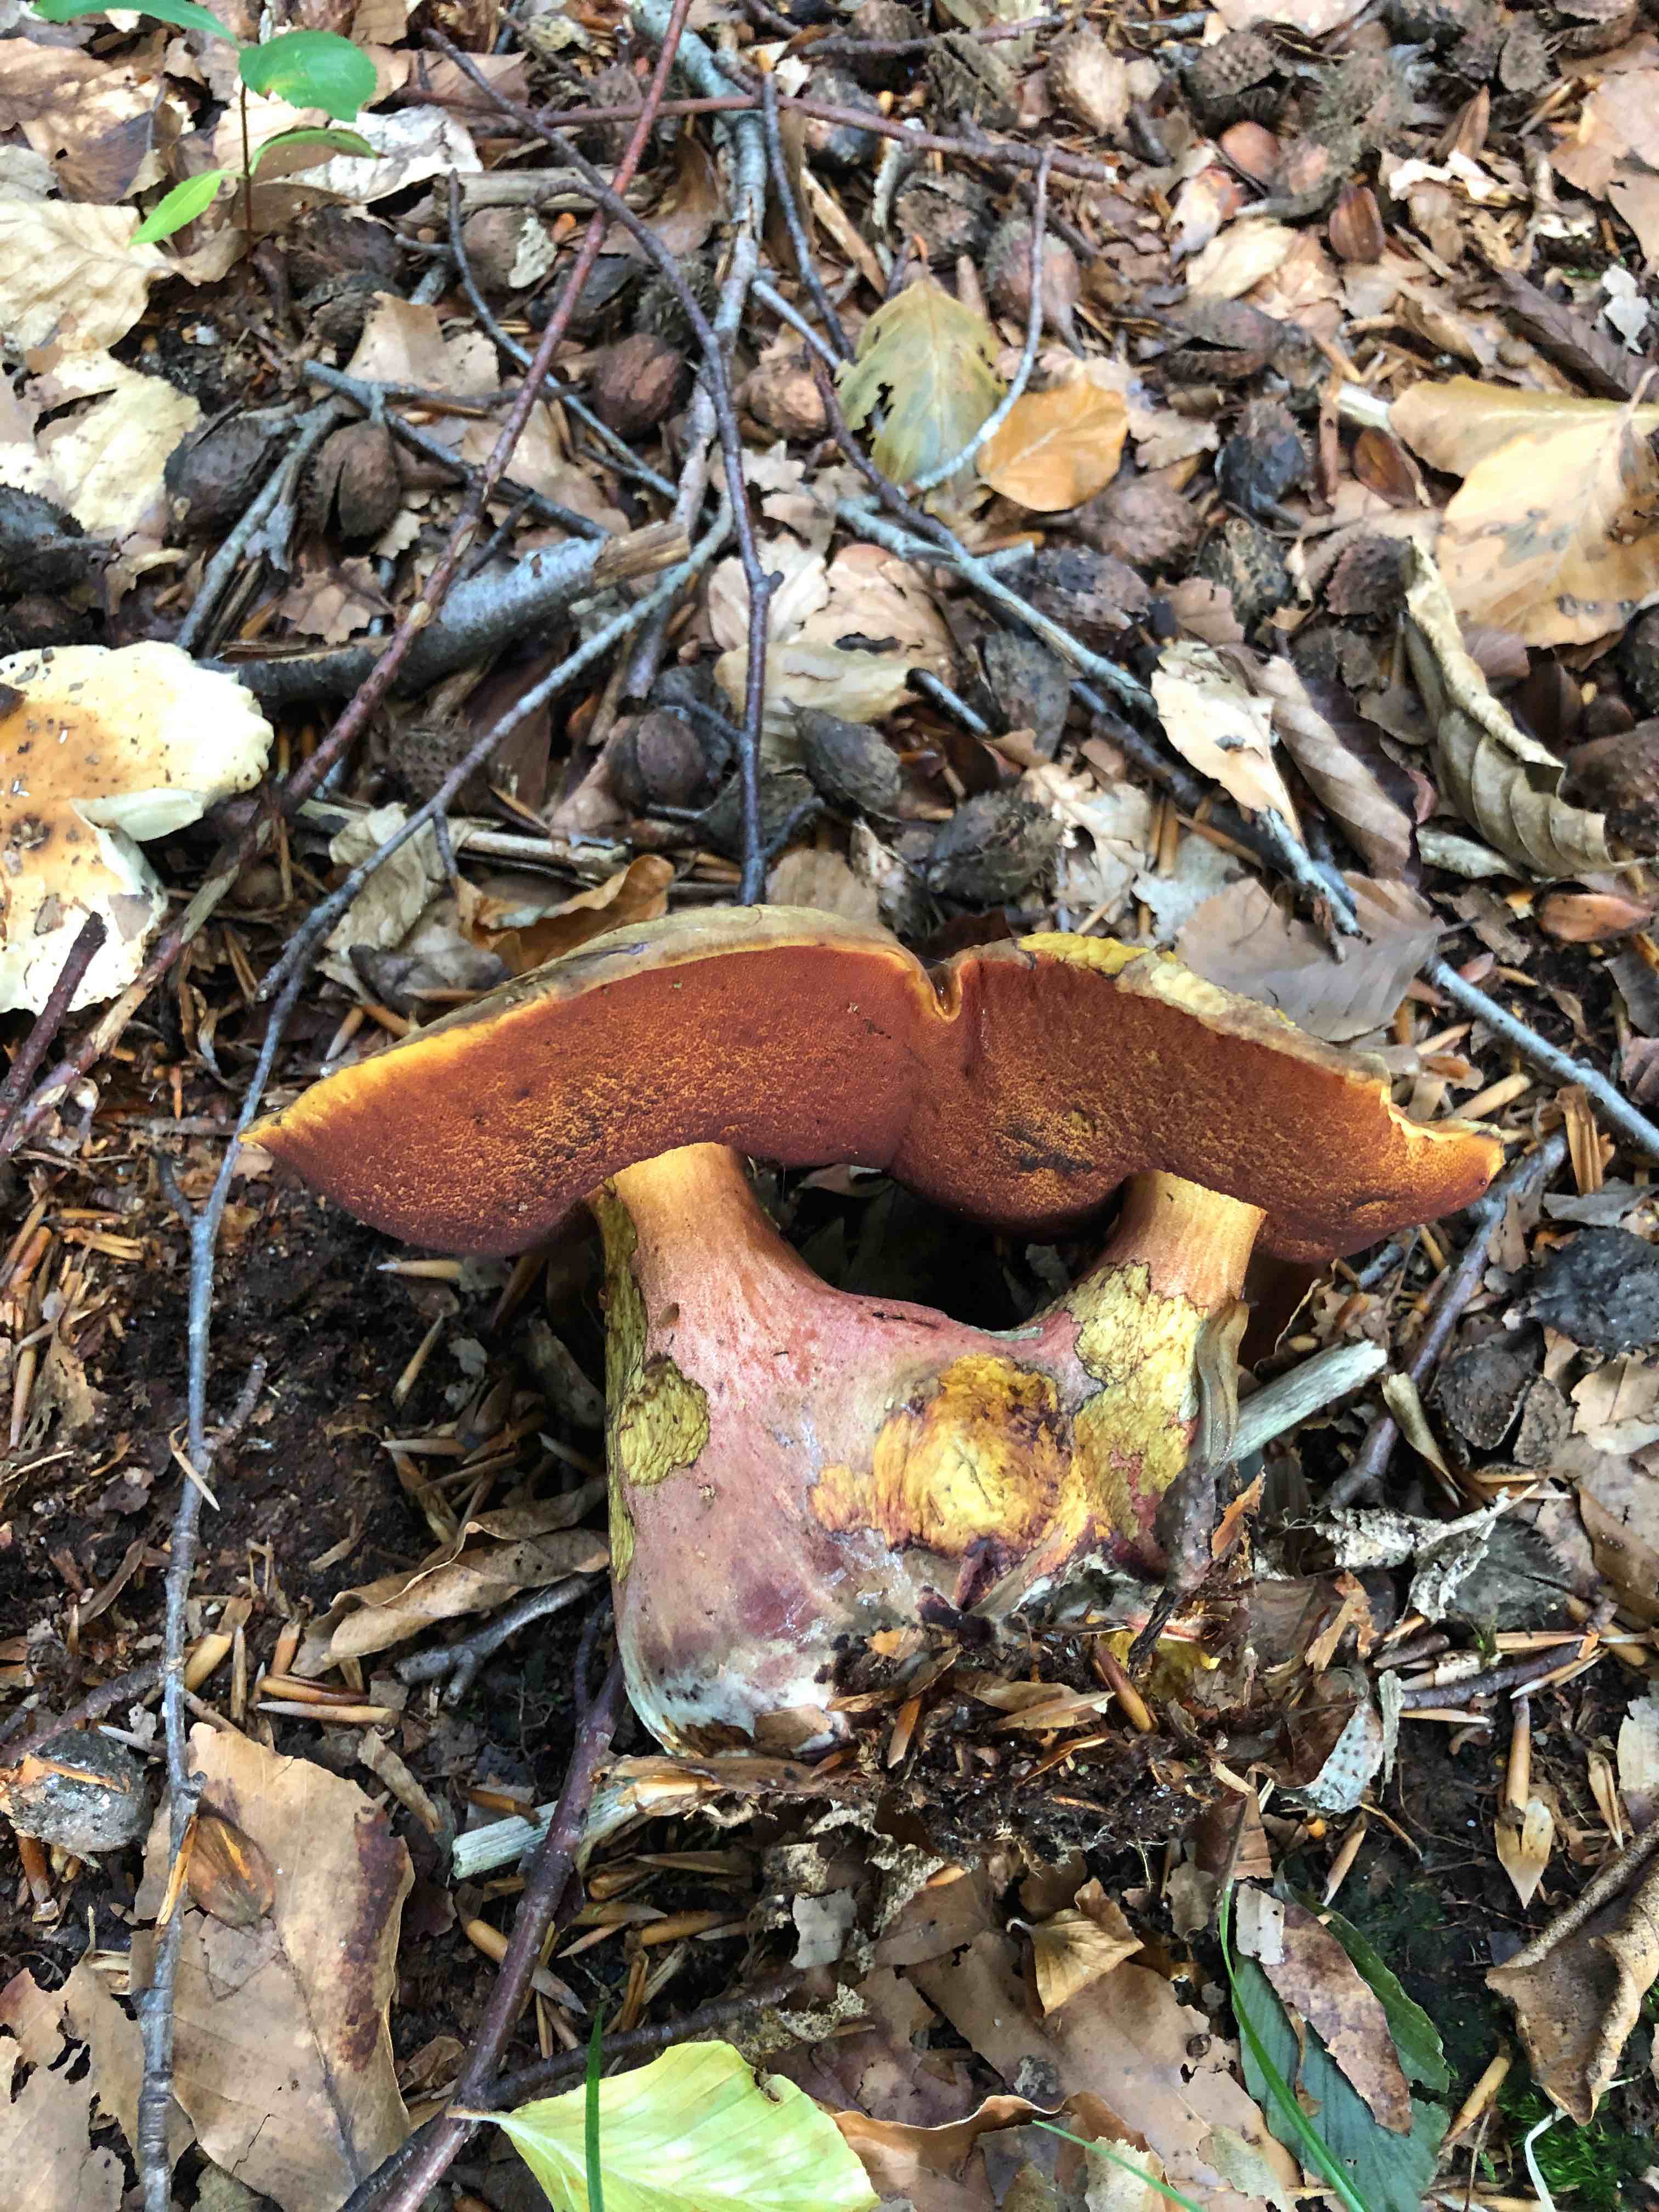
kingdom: Fungi
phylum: Basidiomycota
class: Agaricomycetes
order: Boletales
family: Boletaceae
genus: Neoboletus
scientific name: Neoboletus erythropus
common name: punktstokket indigorørhat
